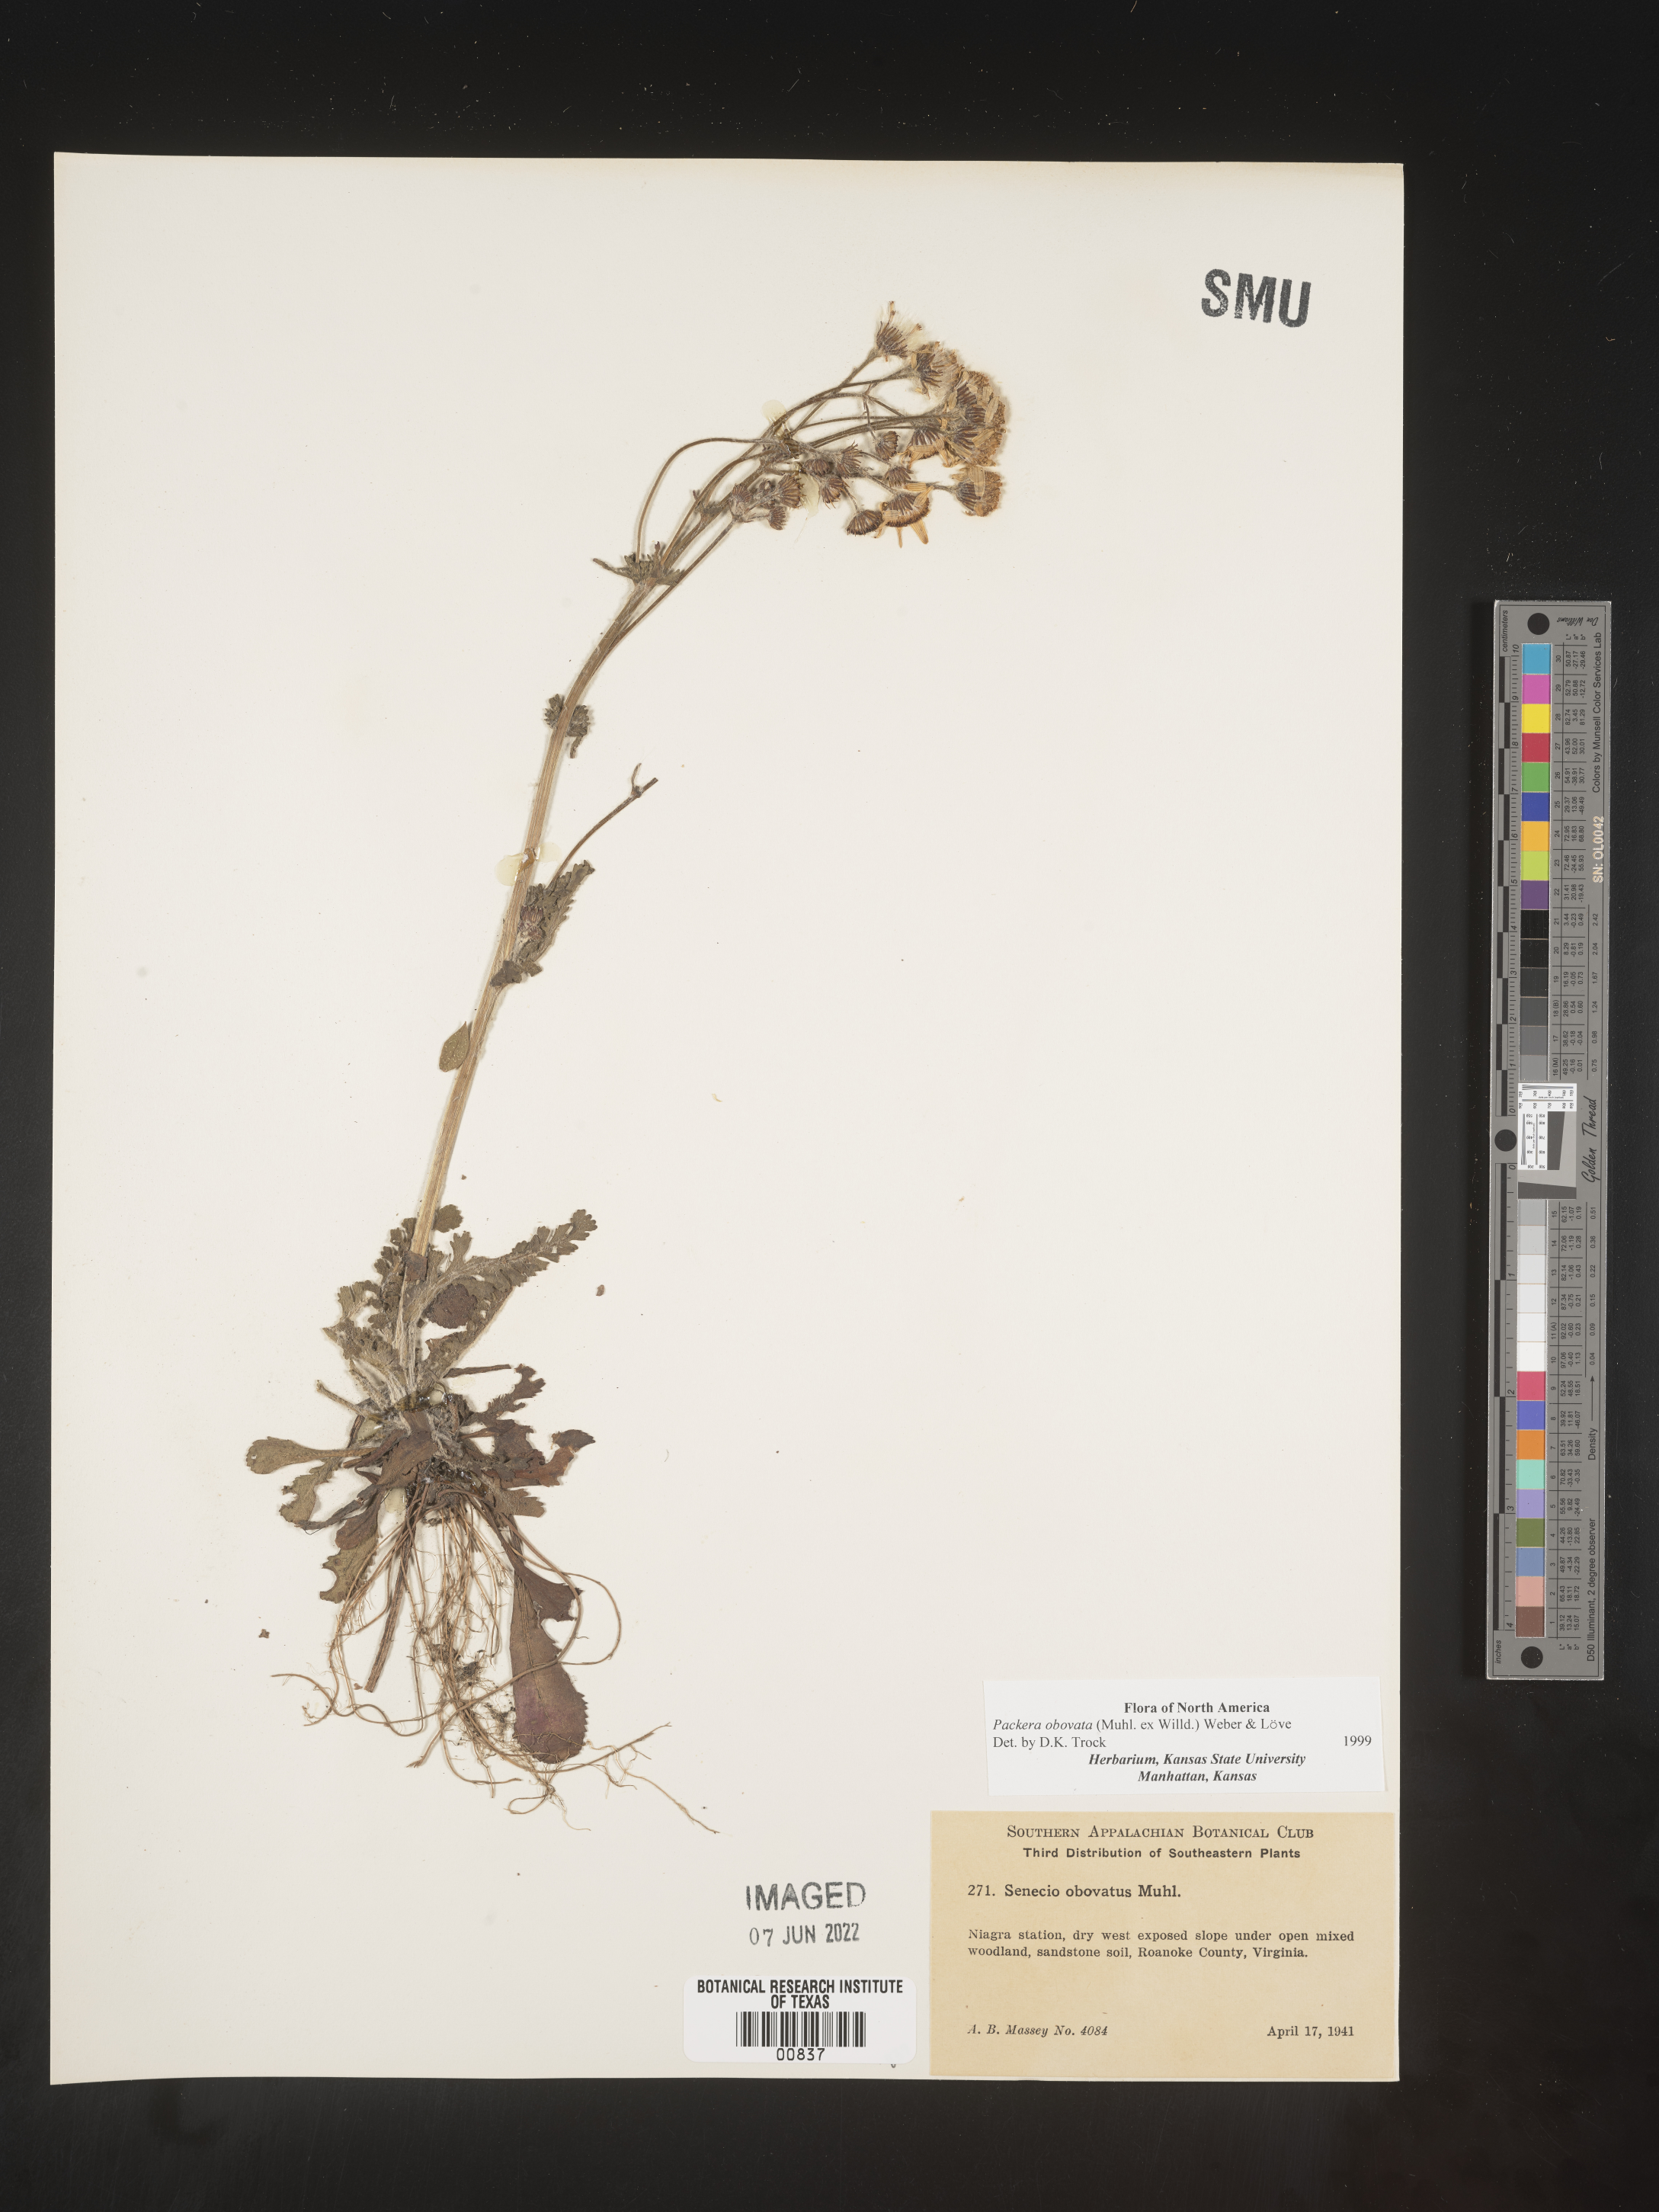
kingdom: Plantae
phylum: Tracheophyta
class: Magnoliopsida
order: Asterales
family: Asteraceae
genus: Packera
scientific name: Packera obovata
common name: Round-leaf ragwort
